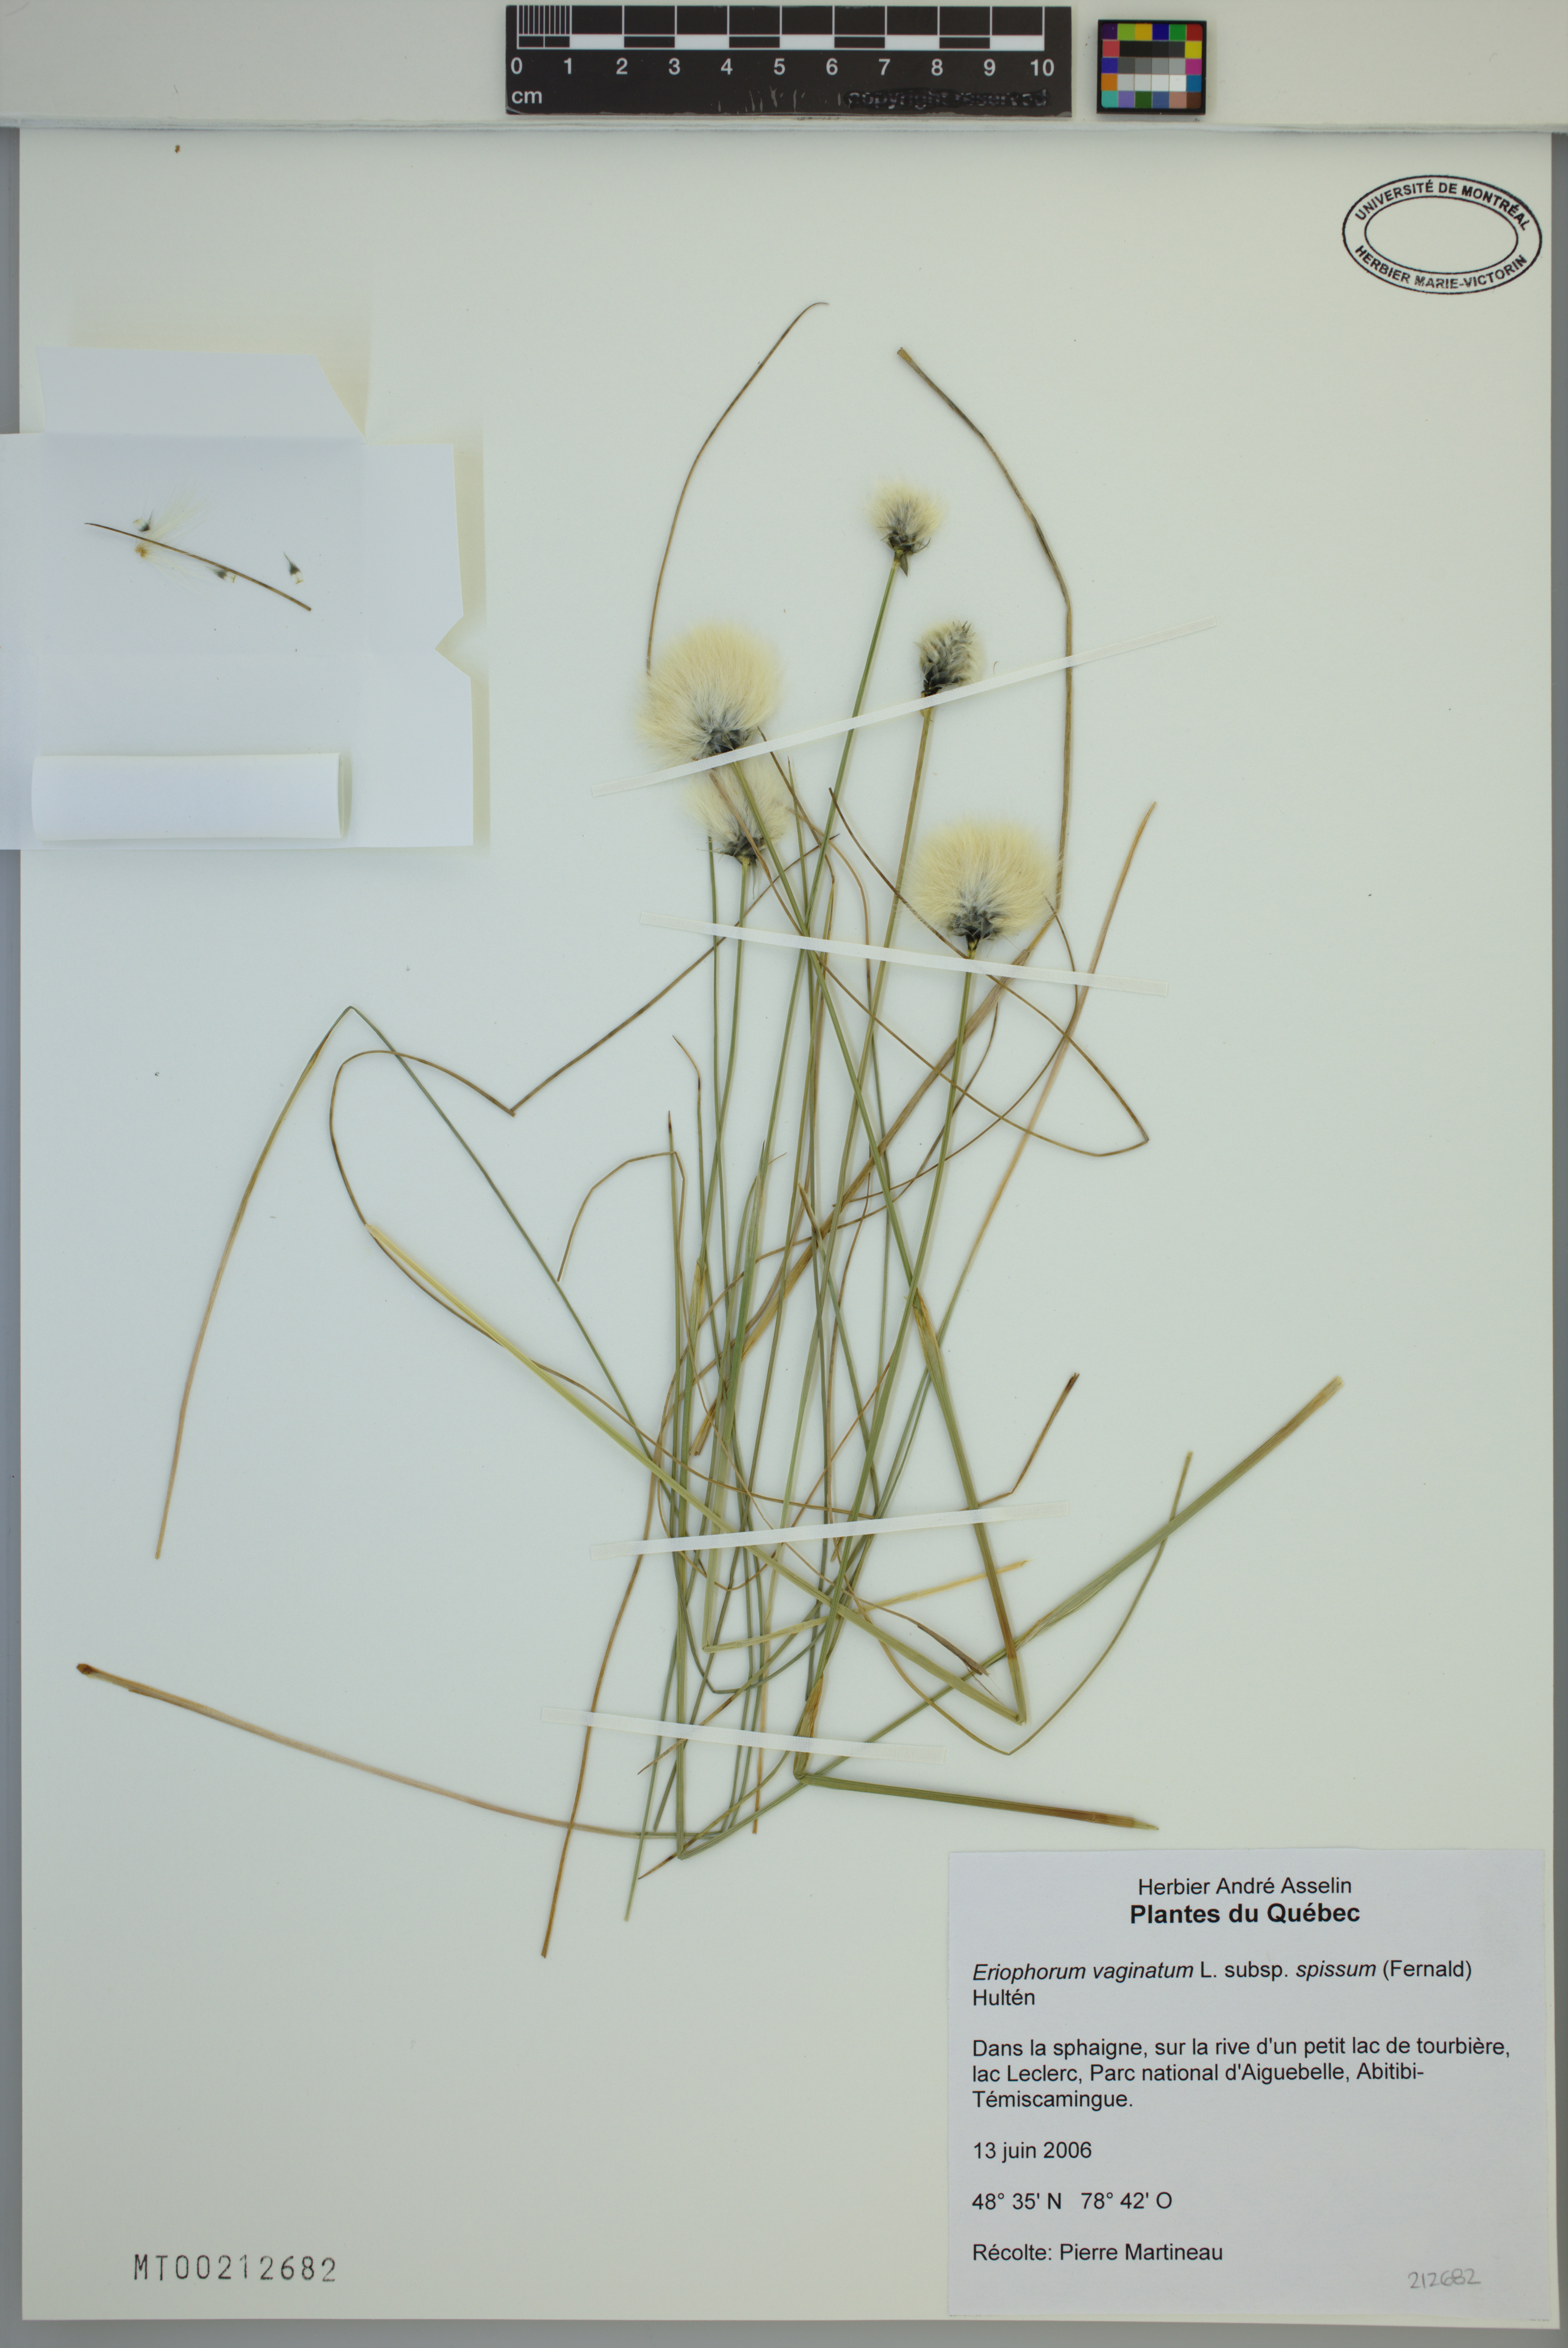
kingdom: Plantae
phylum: Tracheophyta
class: Liliopsida
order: Poales
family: Cyperaceae
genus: Eriophorum
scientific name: Eriophorum vaginatum
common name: Hare's-tail cottongrass
